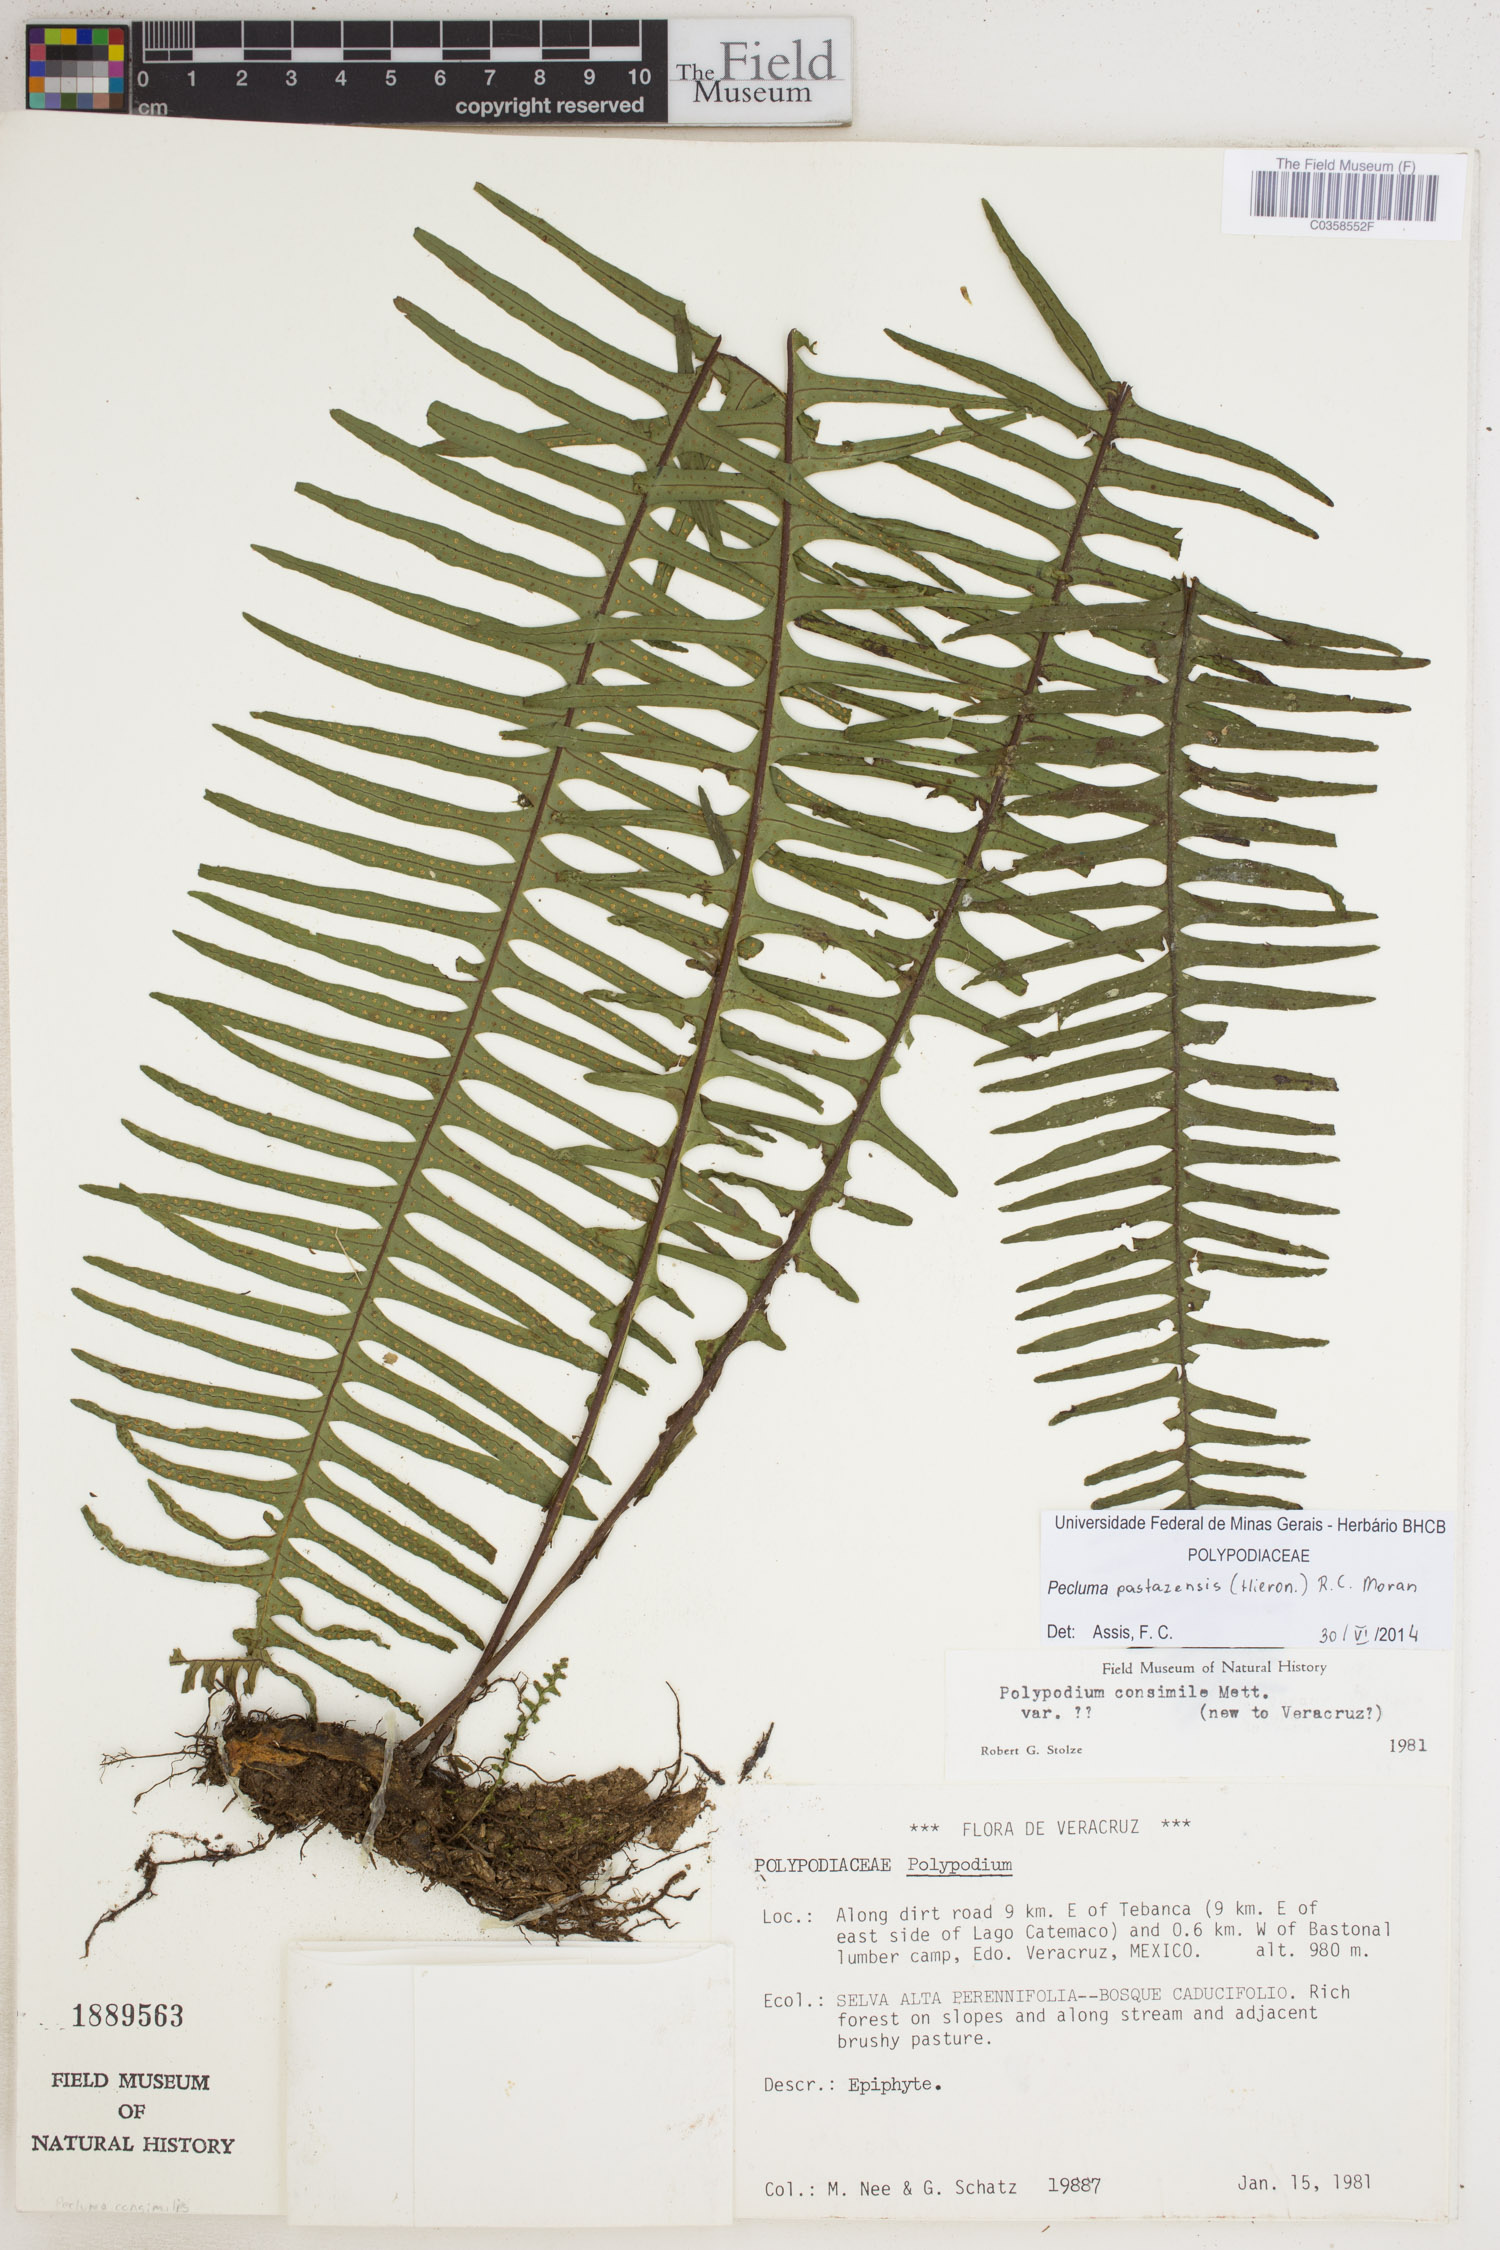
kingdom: Plantae
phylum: Tracheophyta
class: Polypodiopsida
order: Polypodiales
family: Polypodiaceae
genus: Pecluma
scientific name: Pecluma pastazensis
